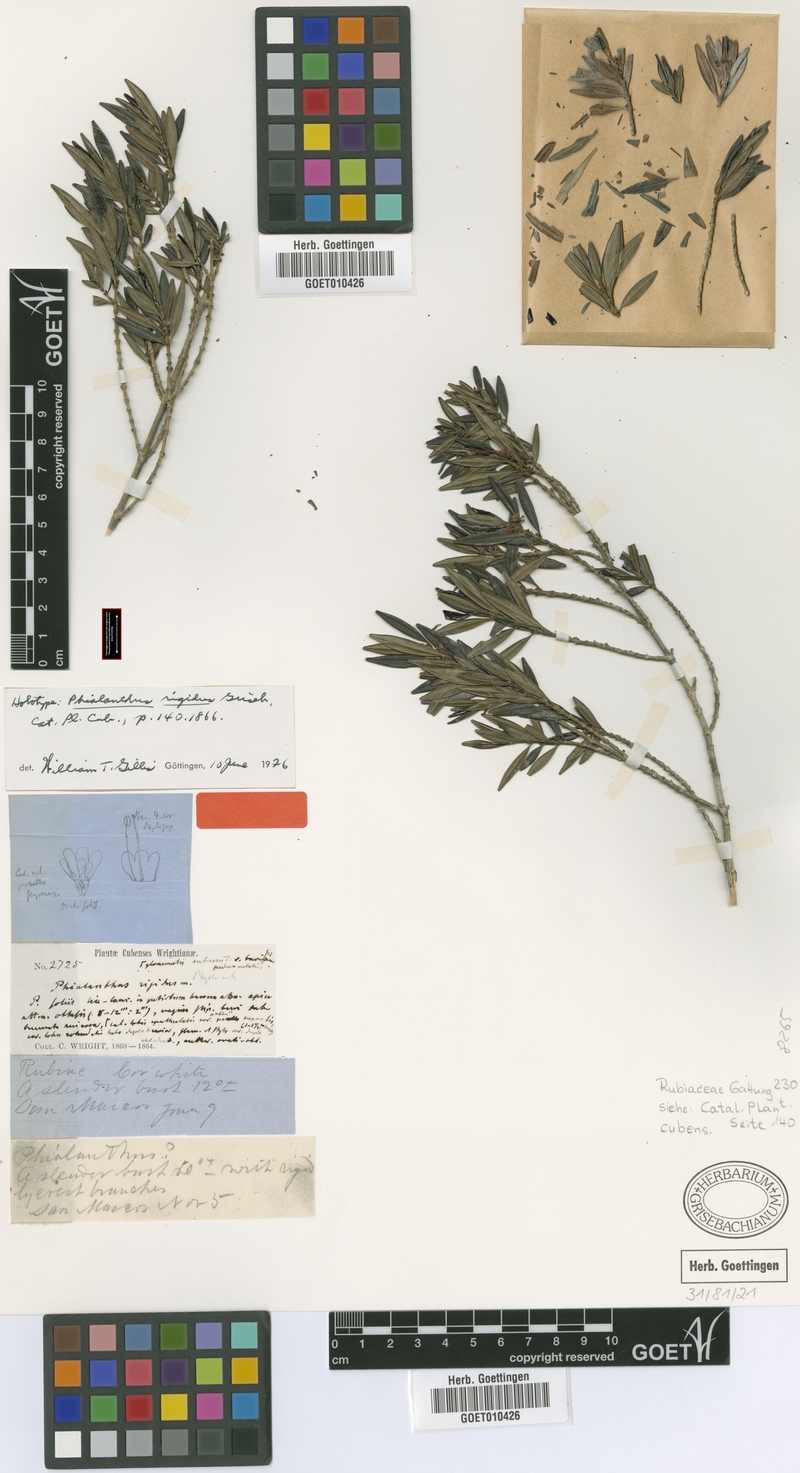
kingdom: Plantae
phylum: Tracheophyta
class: Magnoliopsida
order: Gentianales
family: Rubiaceae
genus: Phialanthus
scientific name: Phialanthus rigidus
